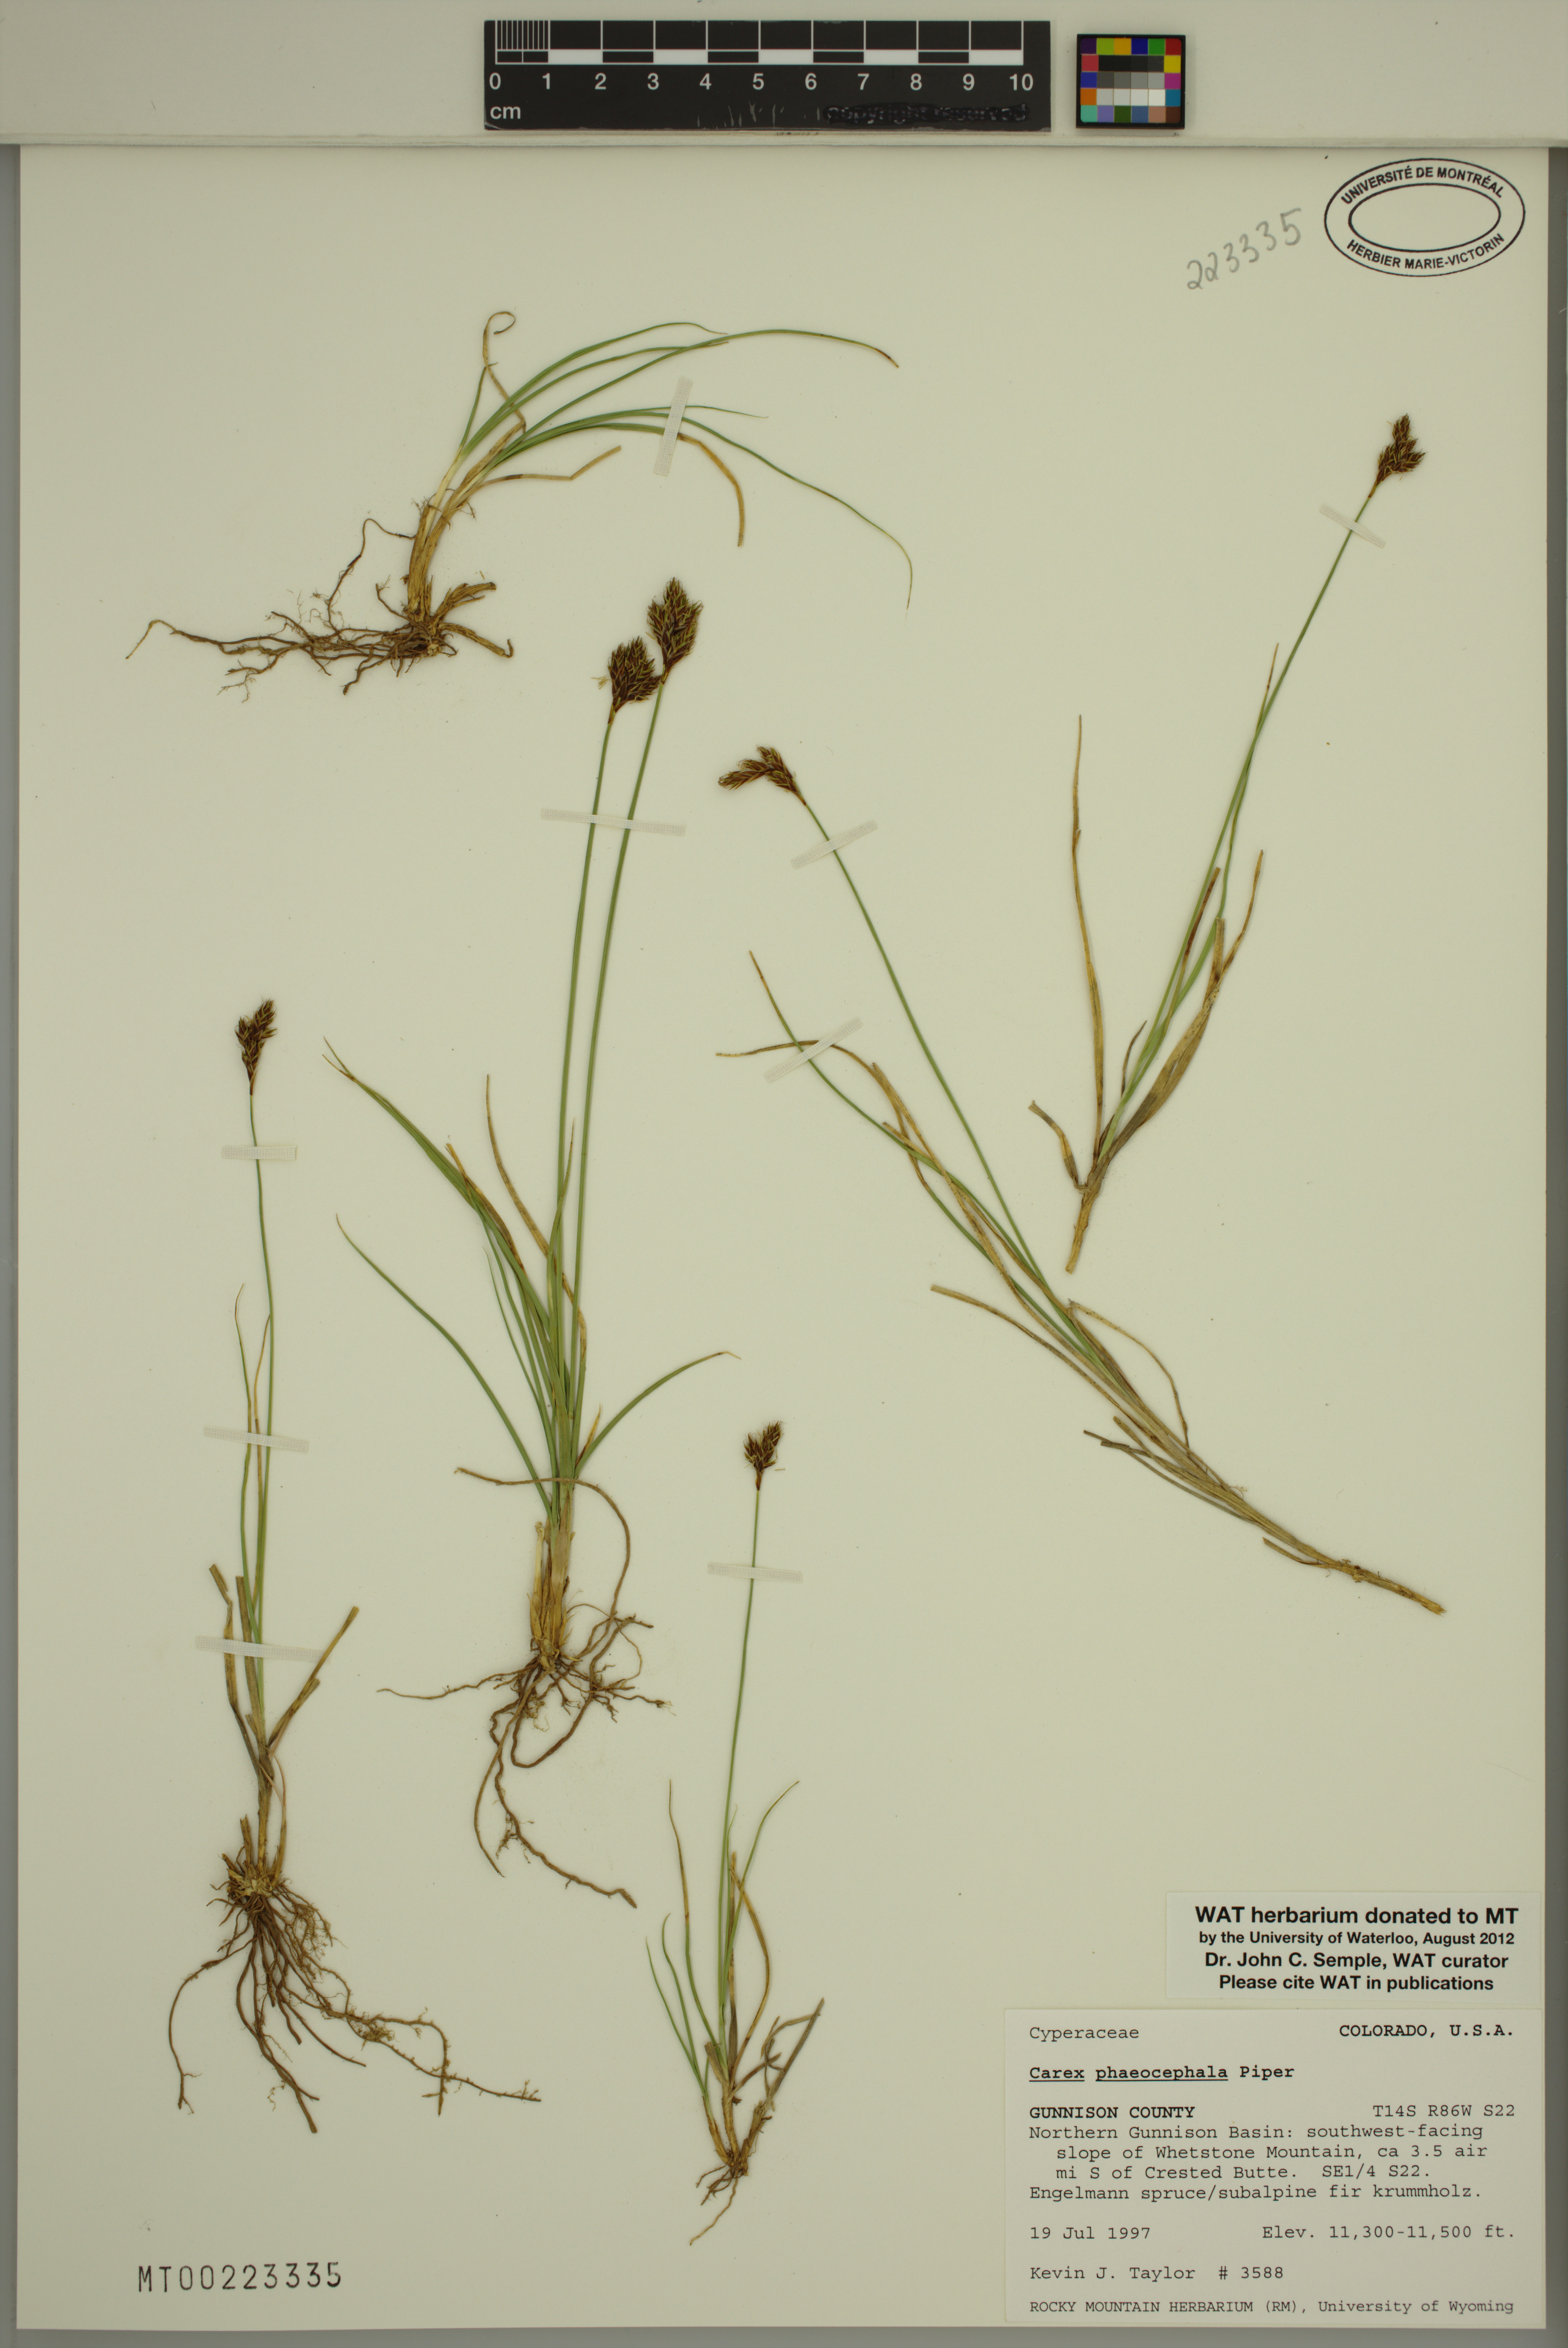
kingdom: Plantae
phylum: Tracheophyta
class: Liliopsida
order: Poales
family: Cyperaceae
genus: Carex
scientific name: Carex phaeocephala
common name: Brown-head sedge
